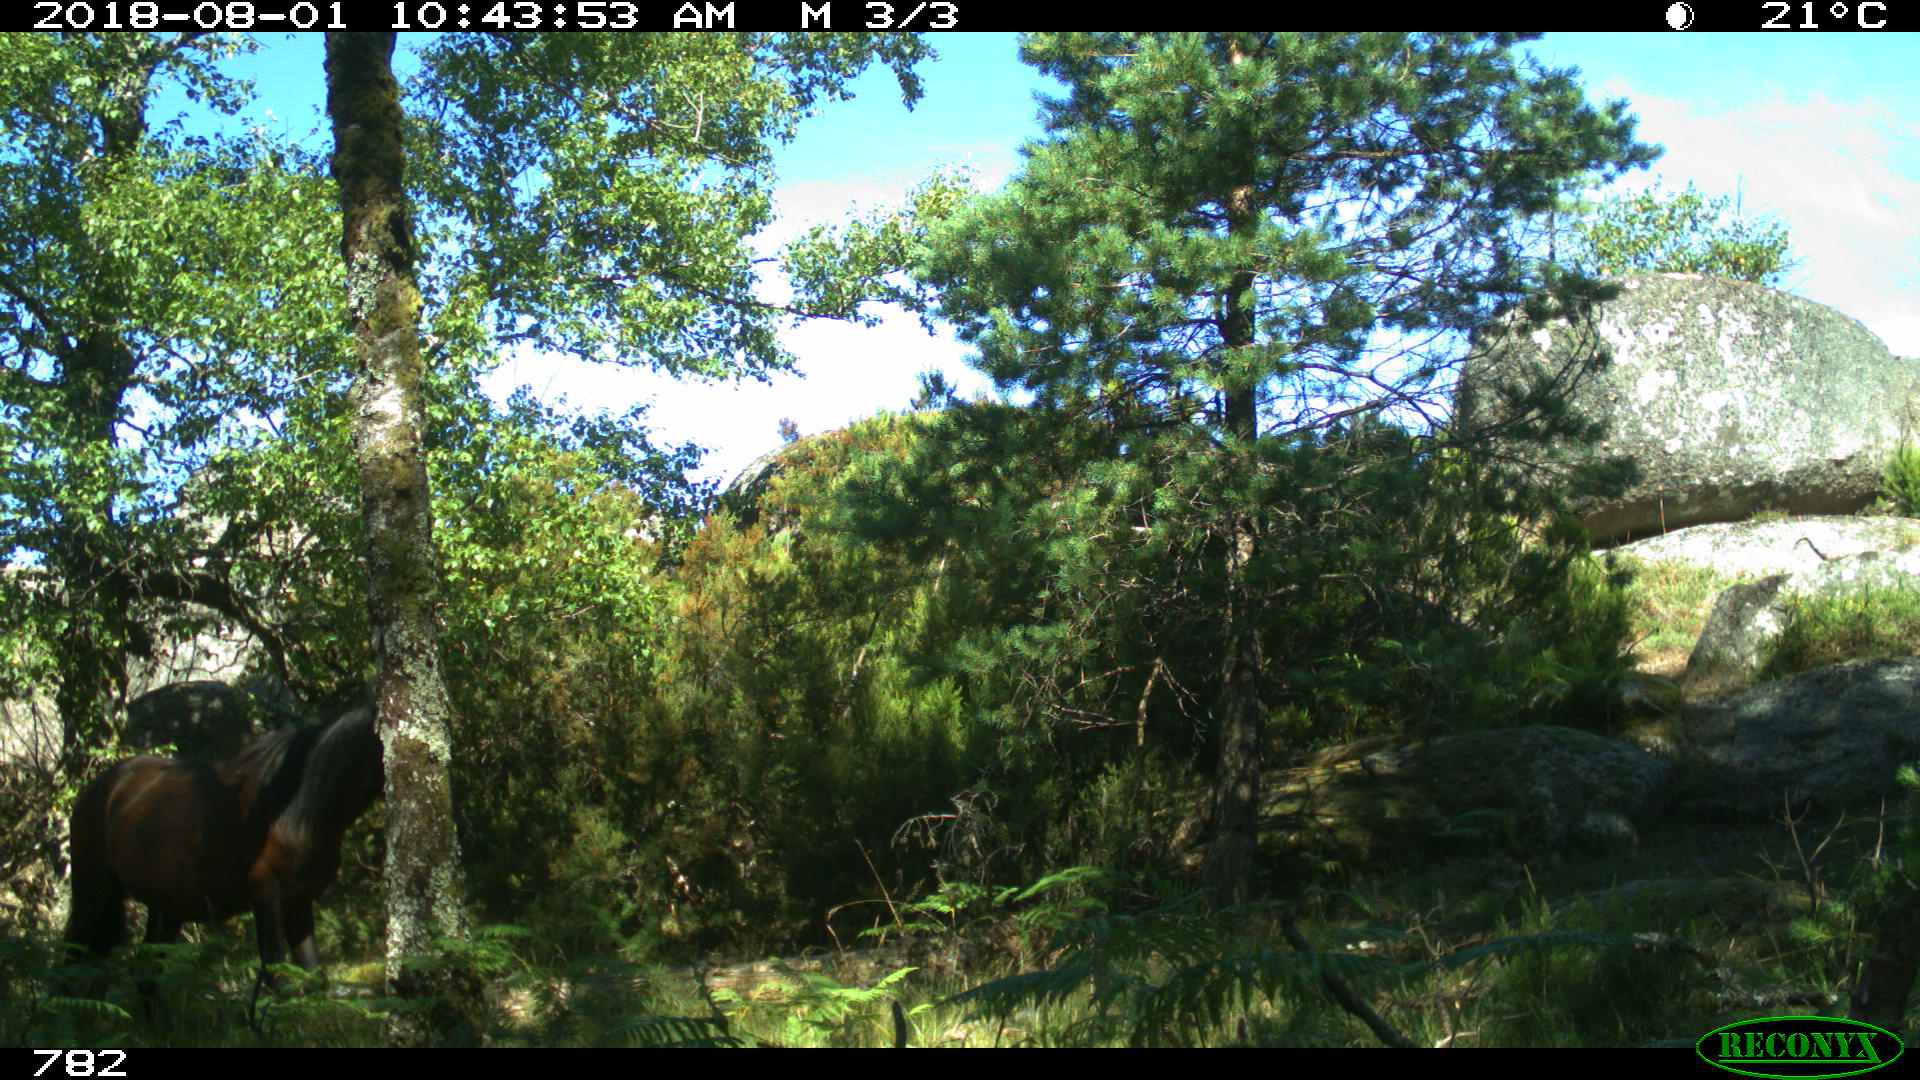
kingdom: Animalia
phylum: Chordata
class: Mammalia
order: Perissodactyla
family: Equidae
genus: Equus
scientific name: Equus caballus
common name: Horse
